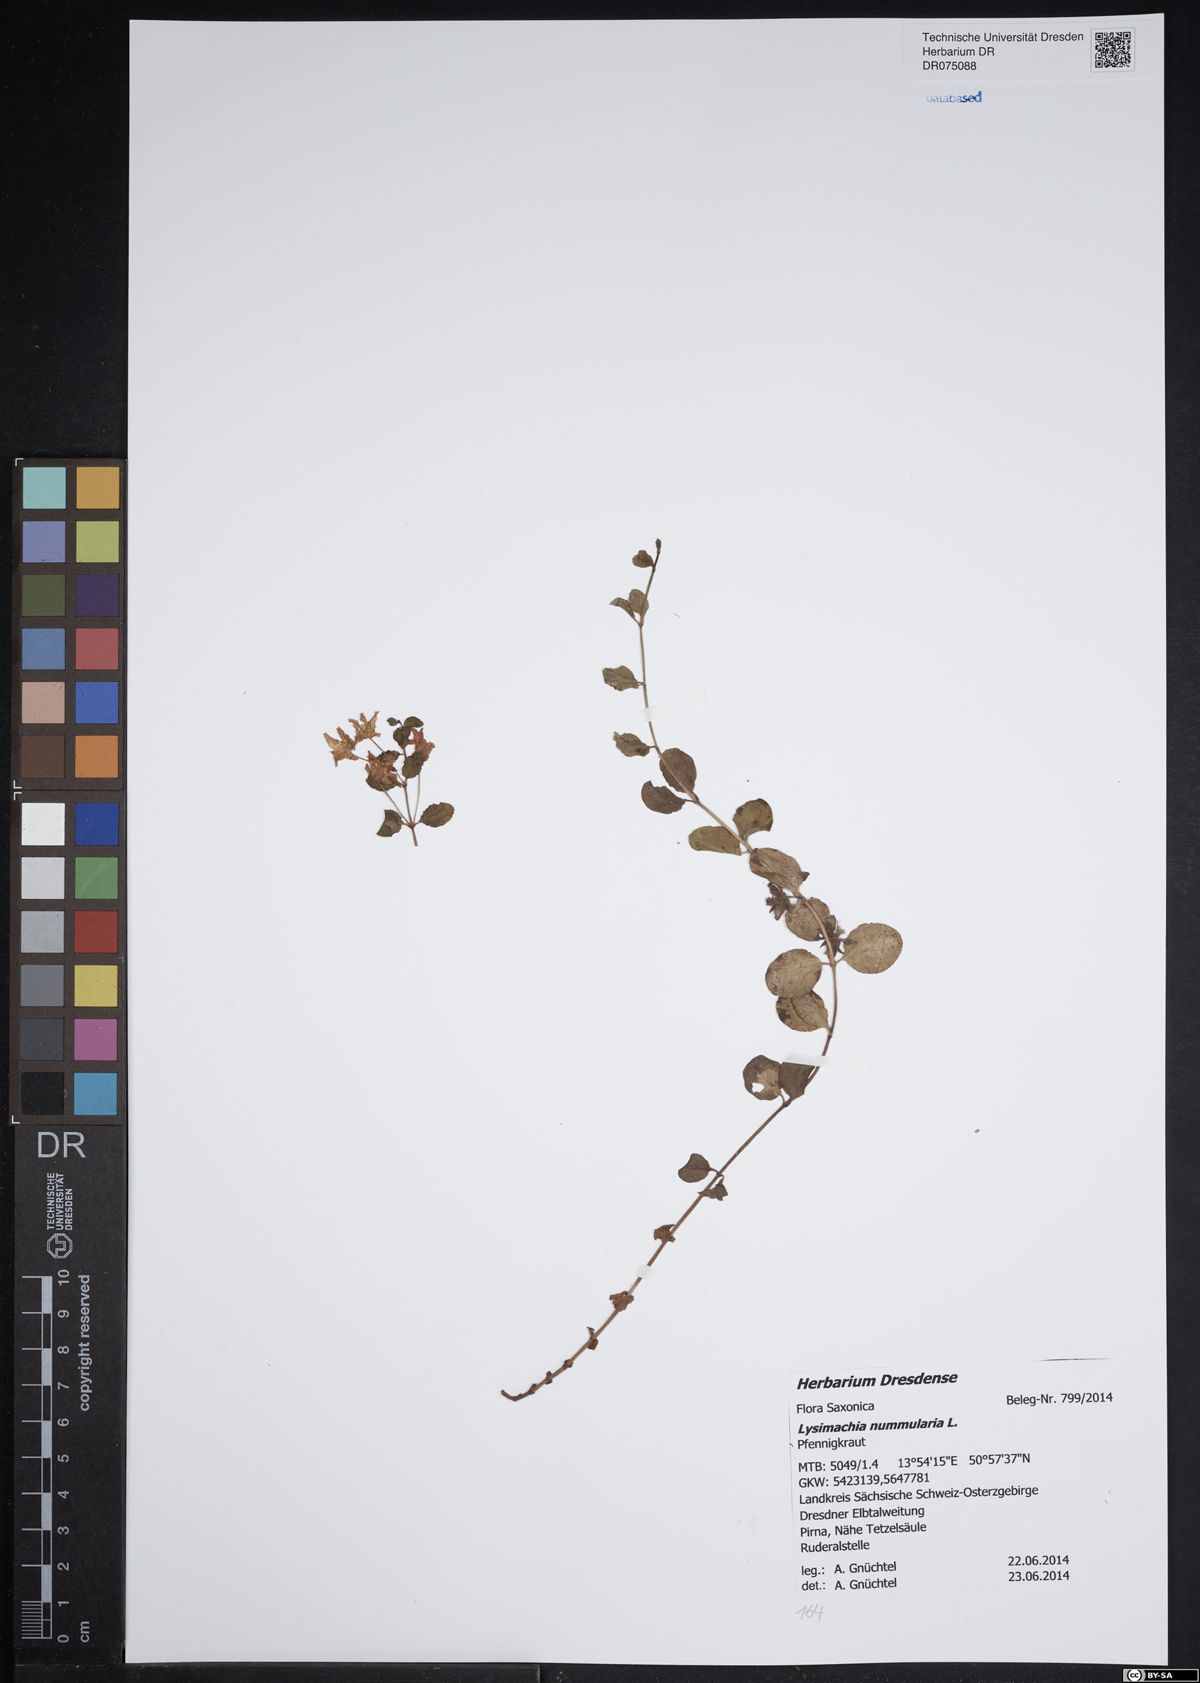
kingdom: Plantae
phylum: Tracheophyta
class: Magnoliopsida
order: Ericales
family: Primulaceae
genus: Lysimachia
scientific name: Lysimachia nummularia
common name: Moneywort
